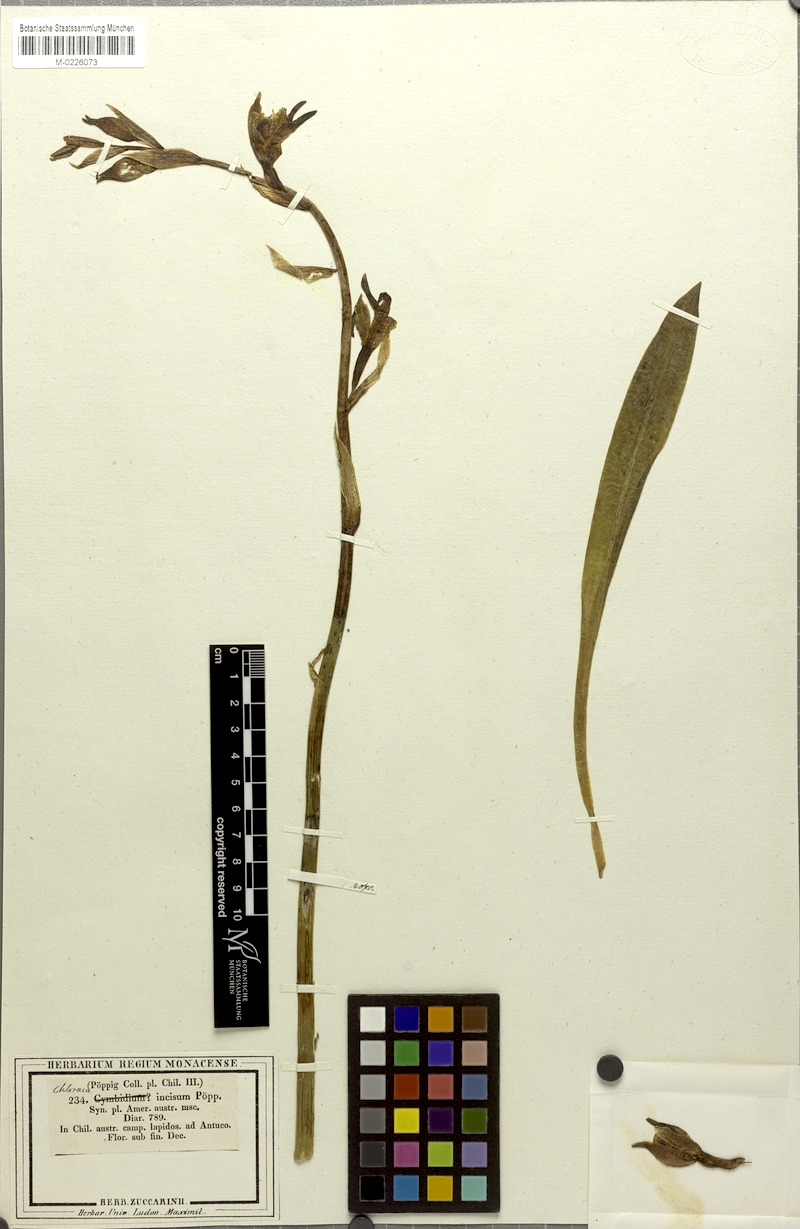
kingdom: Plantae
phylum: Tracheophyta
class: Liliopsida
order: Asparagales
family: Orchidaceae
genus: Chloraea
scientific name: Chloraea piquichen
